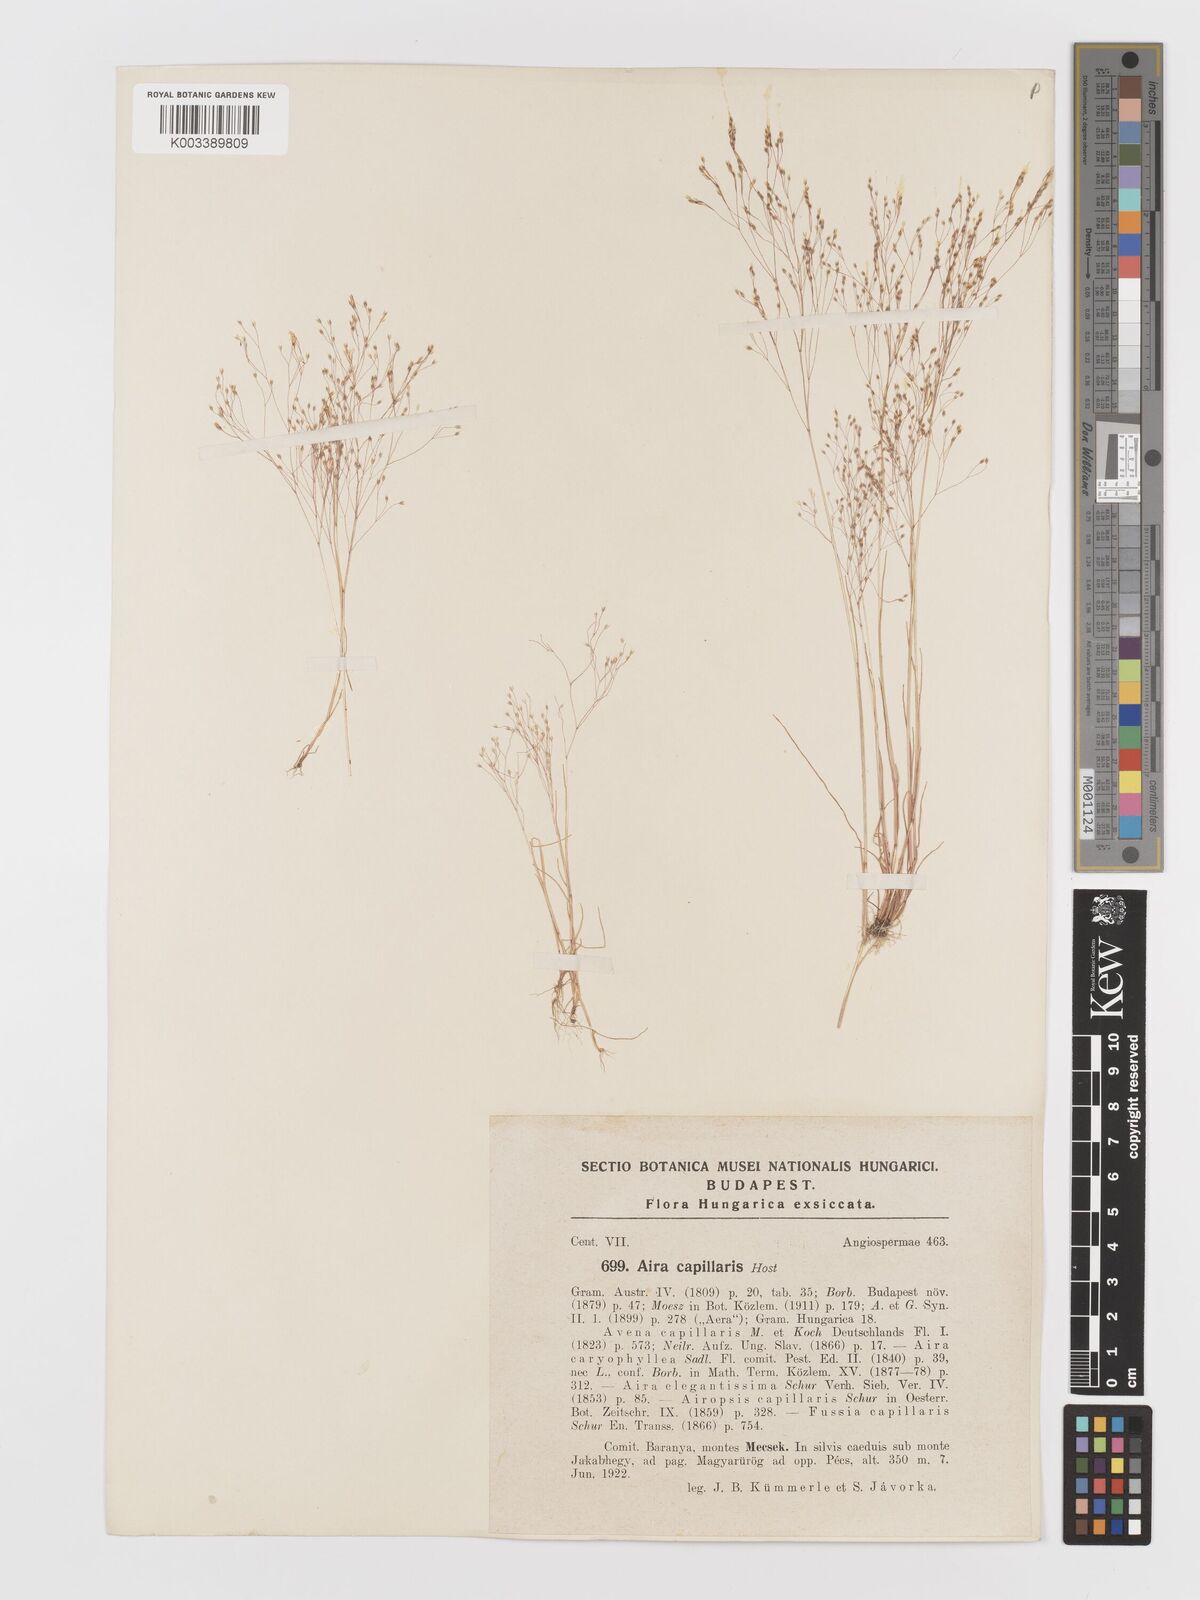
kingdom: Plantae
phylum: Tracheophyta
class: Liliopsida
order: Poales
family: Poaceae
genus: Aira
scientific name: Aira elegans
